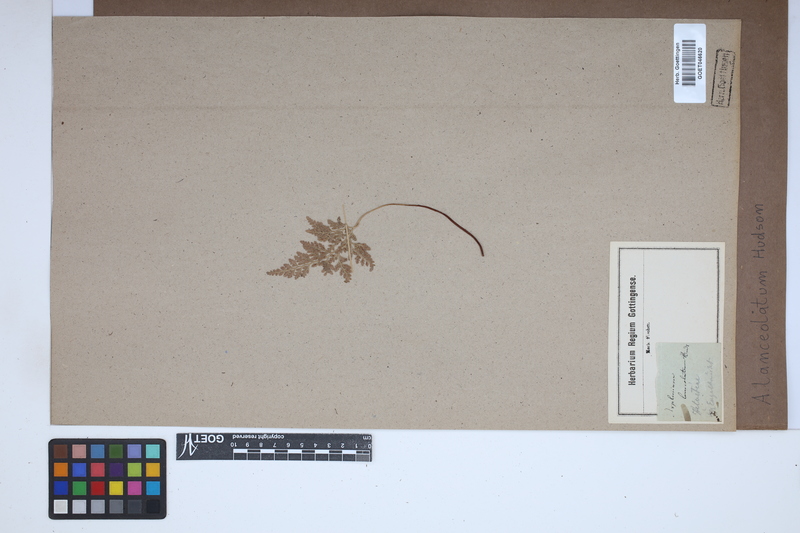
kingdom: Plantae
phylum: Tracheophyta
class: Polypodiopsida
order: Polypodiales
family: Aspleniaceae
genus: Asplenium
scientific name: Asplenium obovatum
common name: Lanceolate spleenwort
